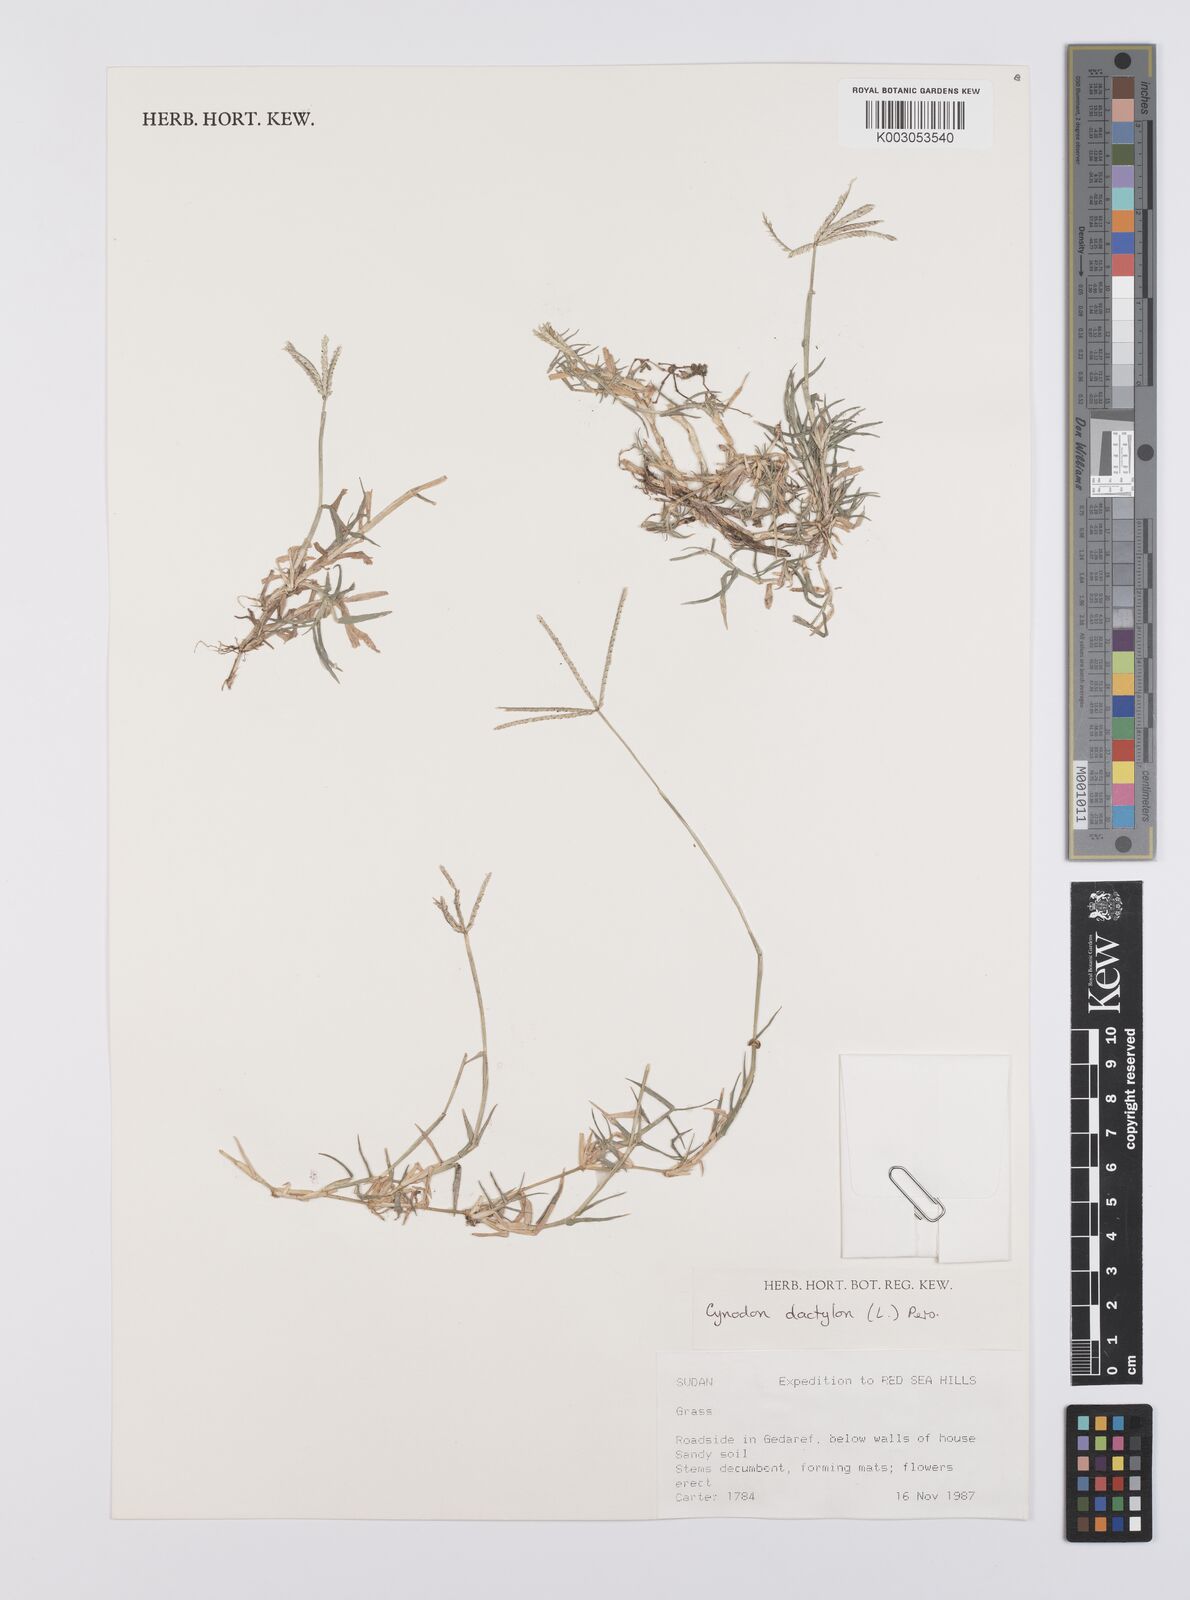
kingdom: Plantae
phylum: Tracheophyta
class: Liliopsida
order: Poales
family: Poaceae
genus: Cynodon
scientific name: Cynodon dactylon
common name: Bermuda grass
